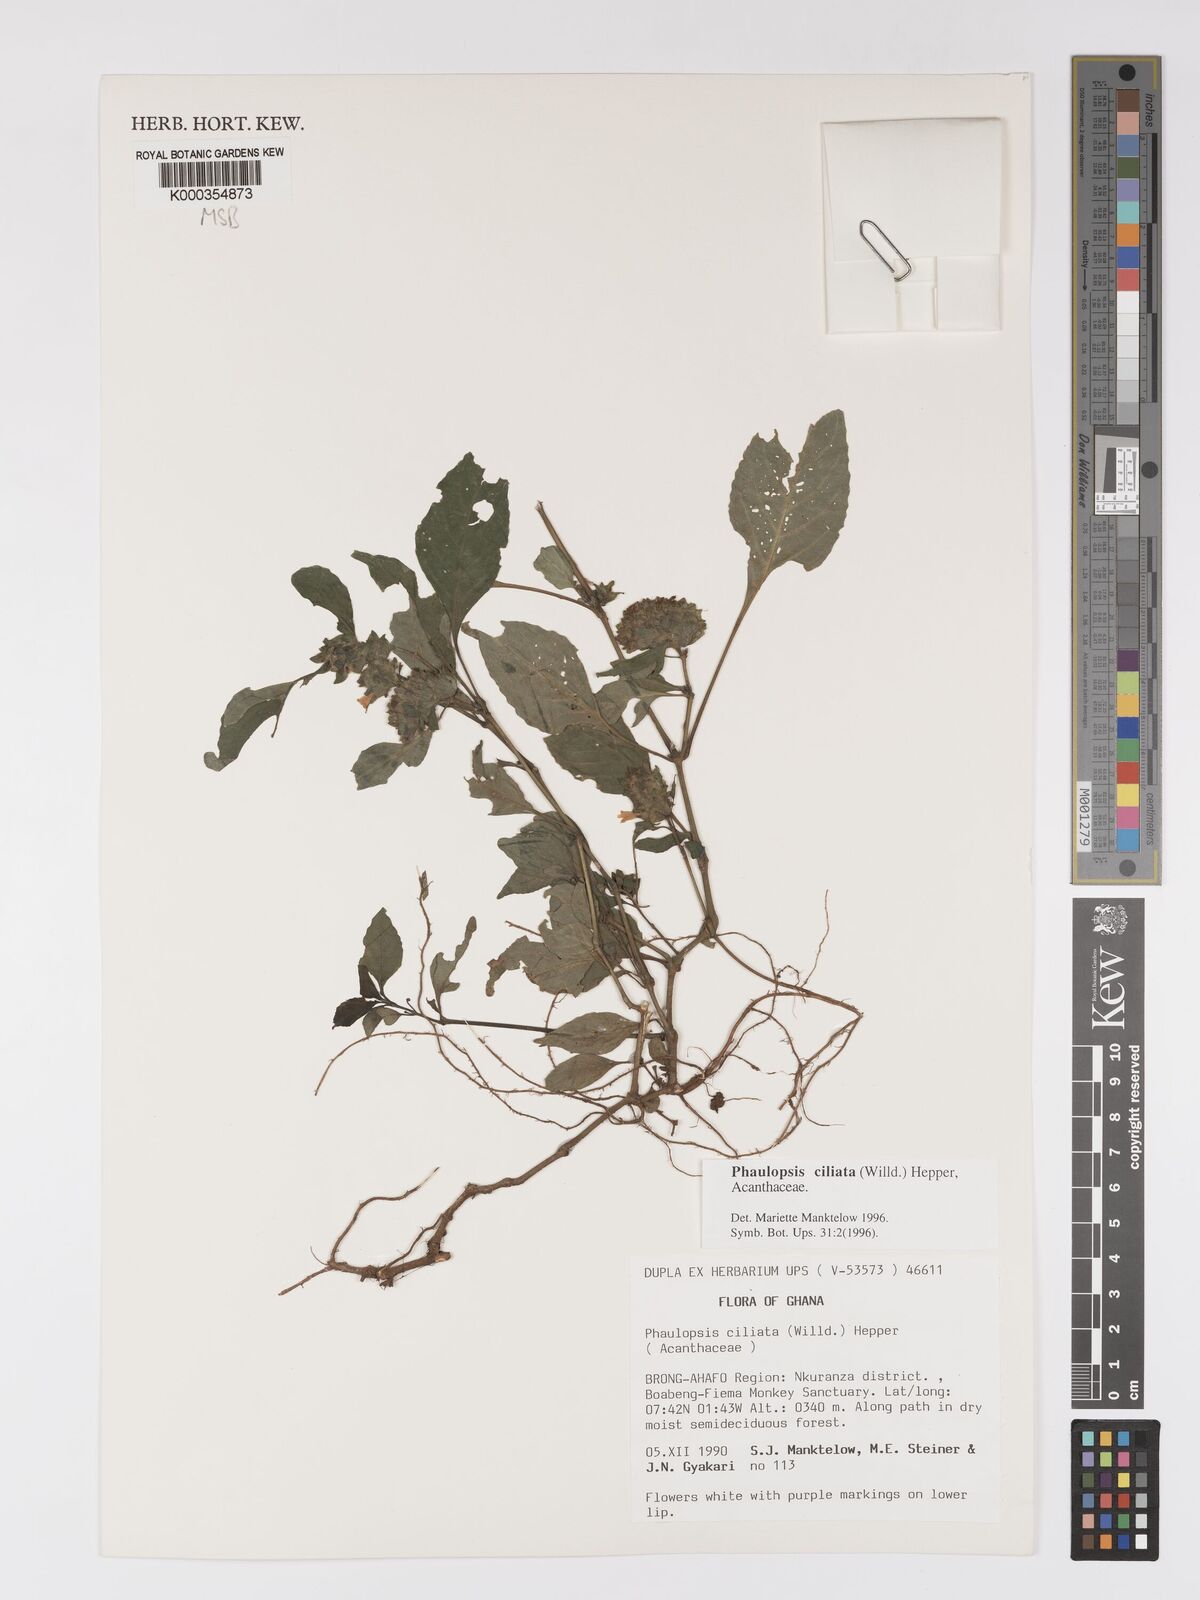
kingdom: Plantae
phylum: Tracheophyta
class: Magnoliopsida
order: Lamiales
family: Acanthaceae
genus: Phaulopsis
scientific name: Phaulopsis ciliata
